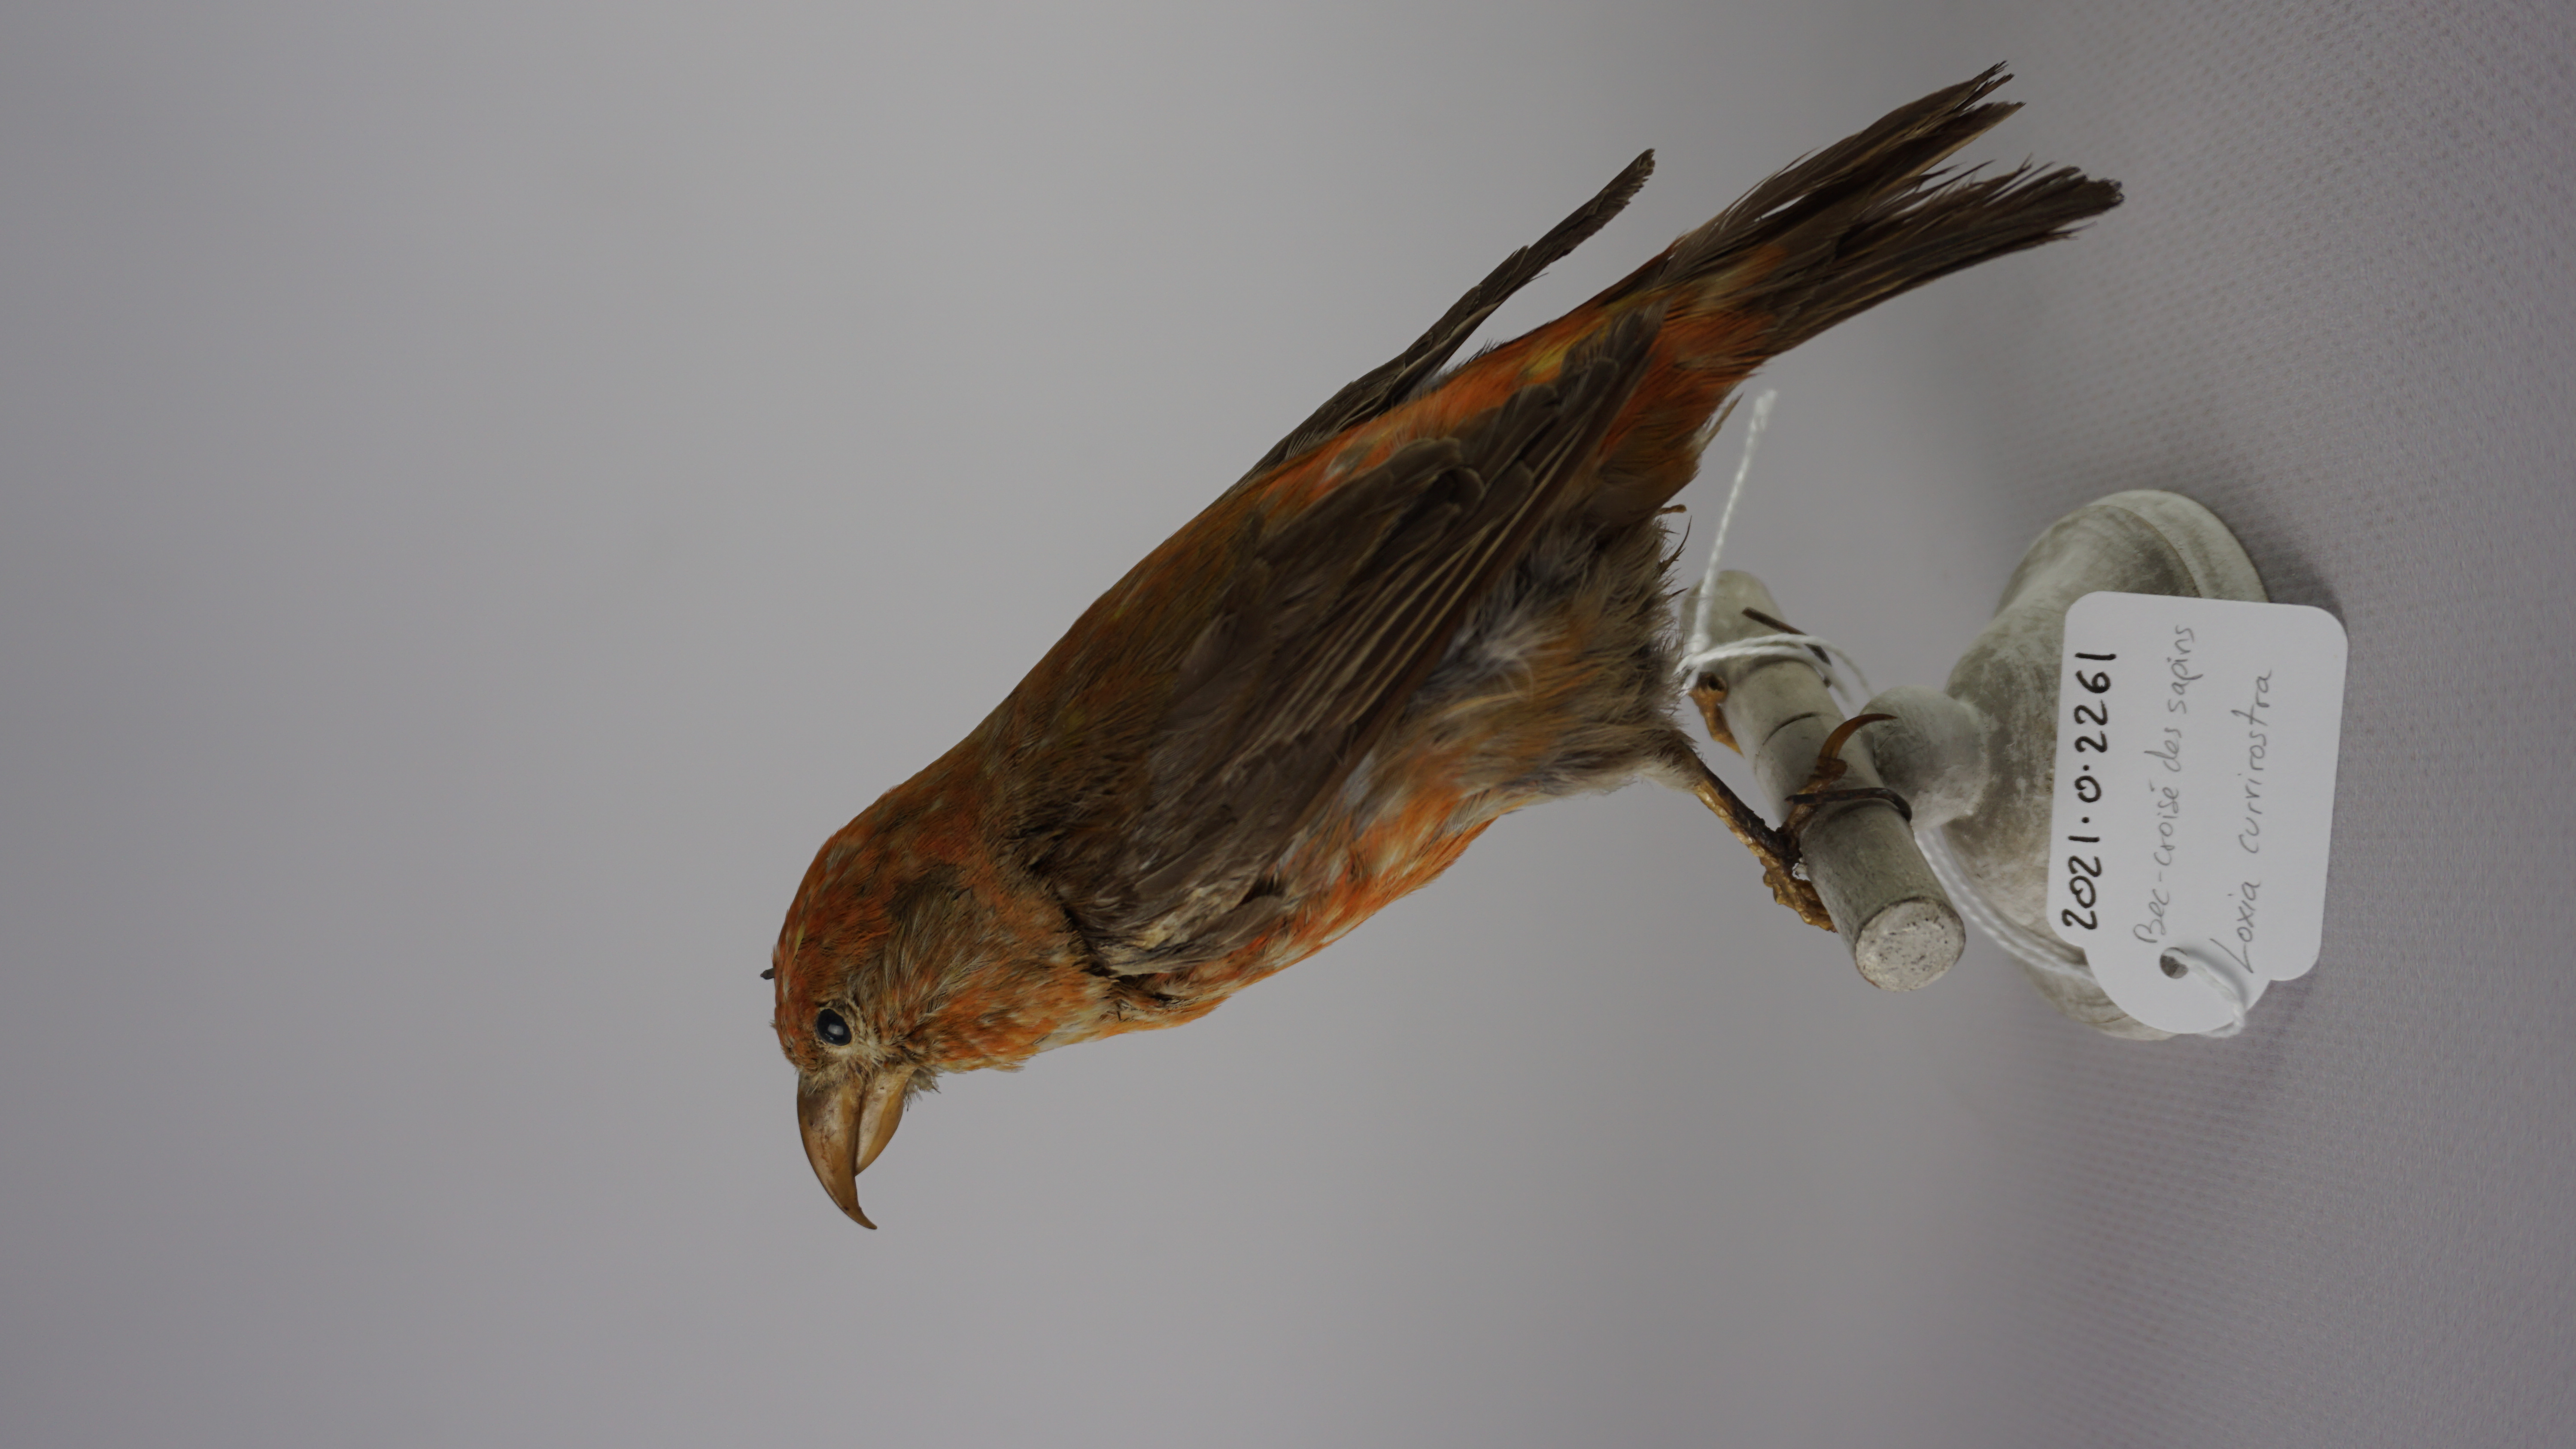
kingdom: Animalia
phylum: Chordata
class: Aves
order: Passeriformes
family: Fringillidae
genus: Loxia
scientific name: Loxia curvirostra
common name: Red crossbill
